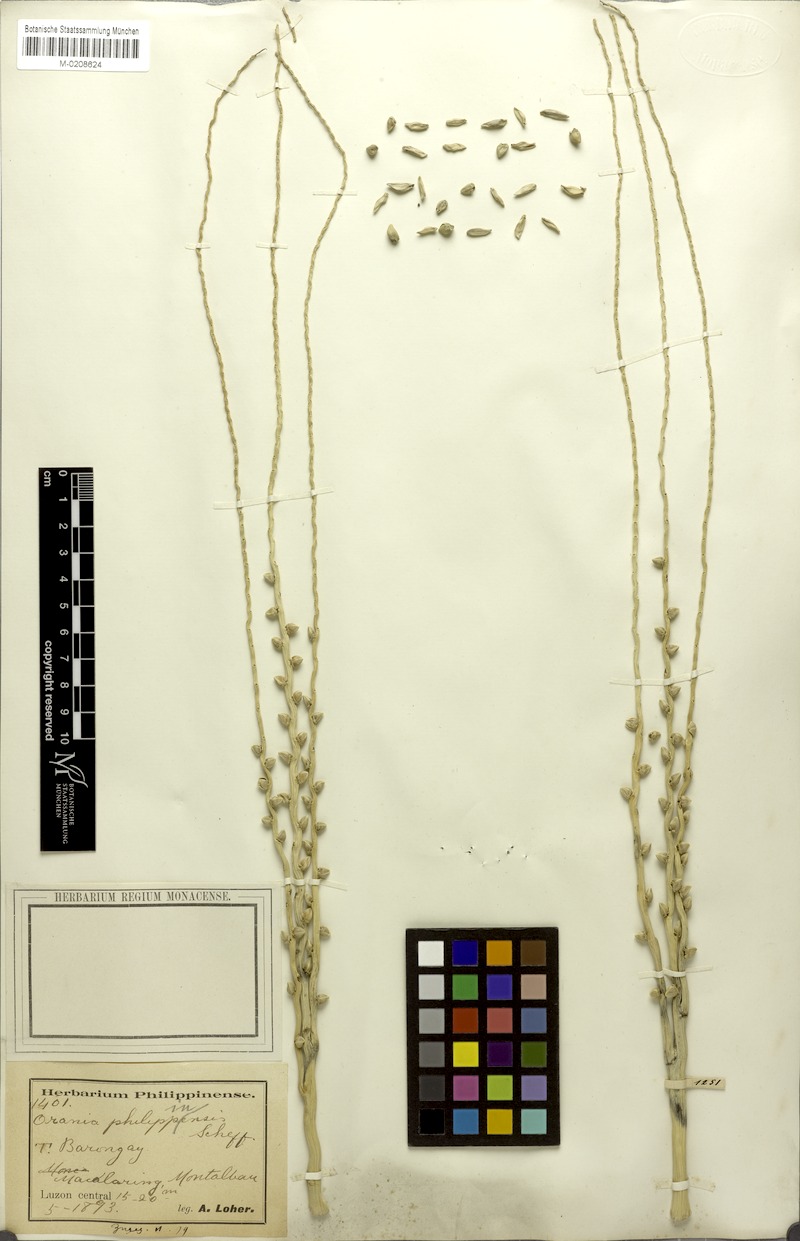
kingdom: Plantae
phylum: Tracheophyta
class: Liliopsida
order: Arecales
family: Arecaceae
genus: Orania
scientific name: Orania palindan
